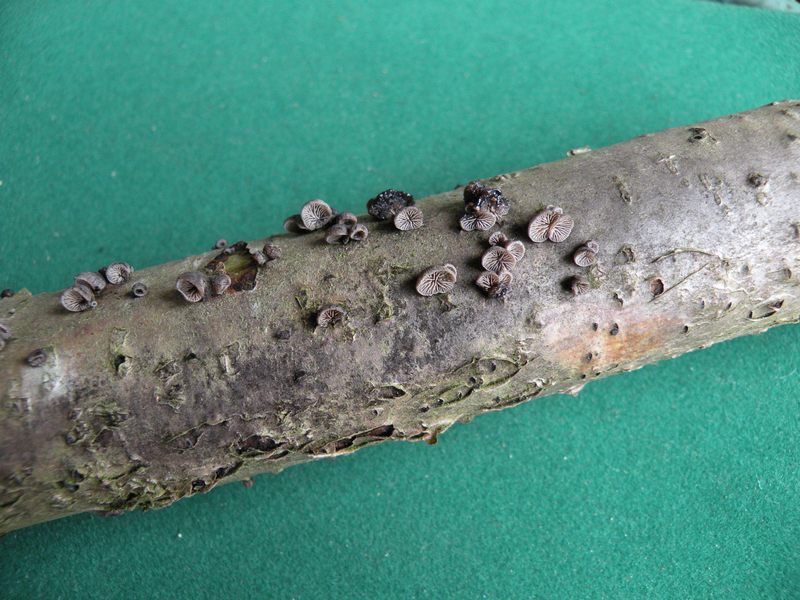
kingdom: Fungi
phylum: Basidiomycota
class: Agaricomycetes
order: Agaricales
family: Pleurotaceae
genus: Resupinatus
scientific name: Resupinatus applicatus
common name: lysfiltet barkhat
